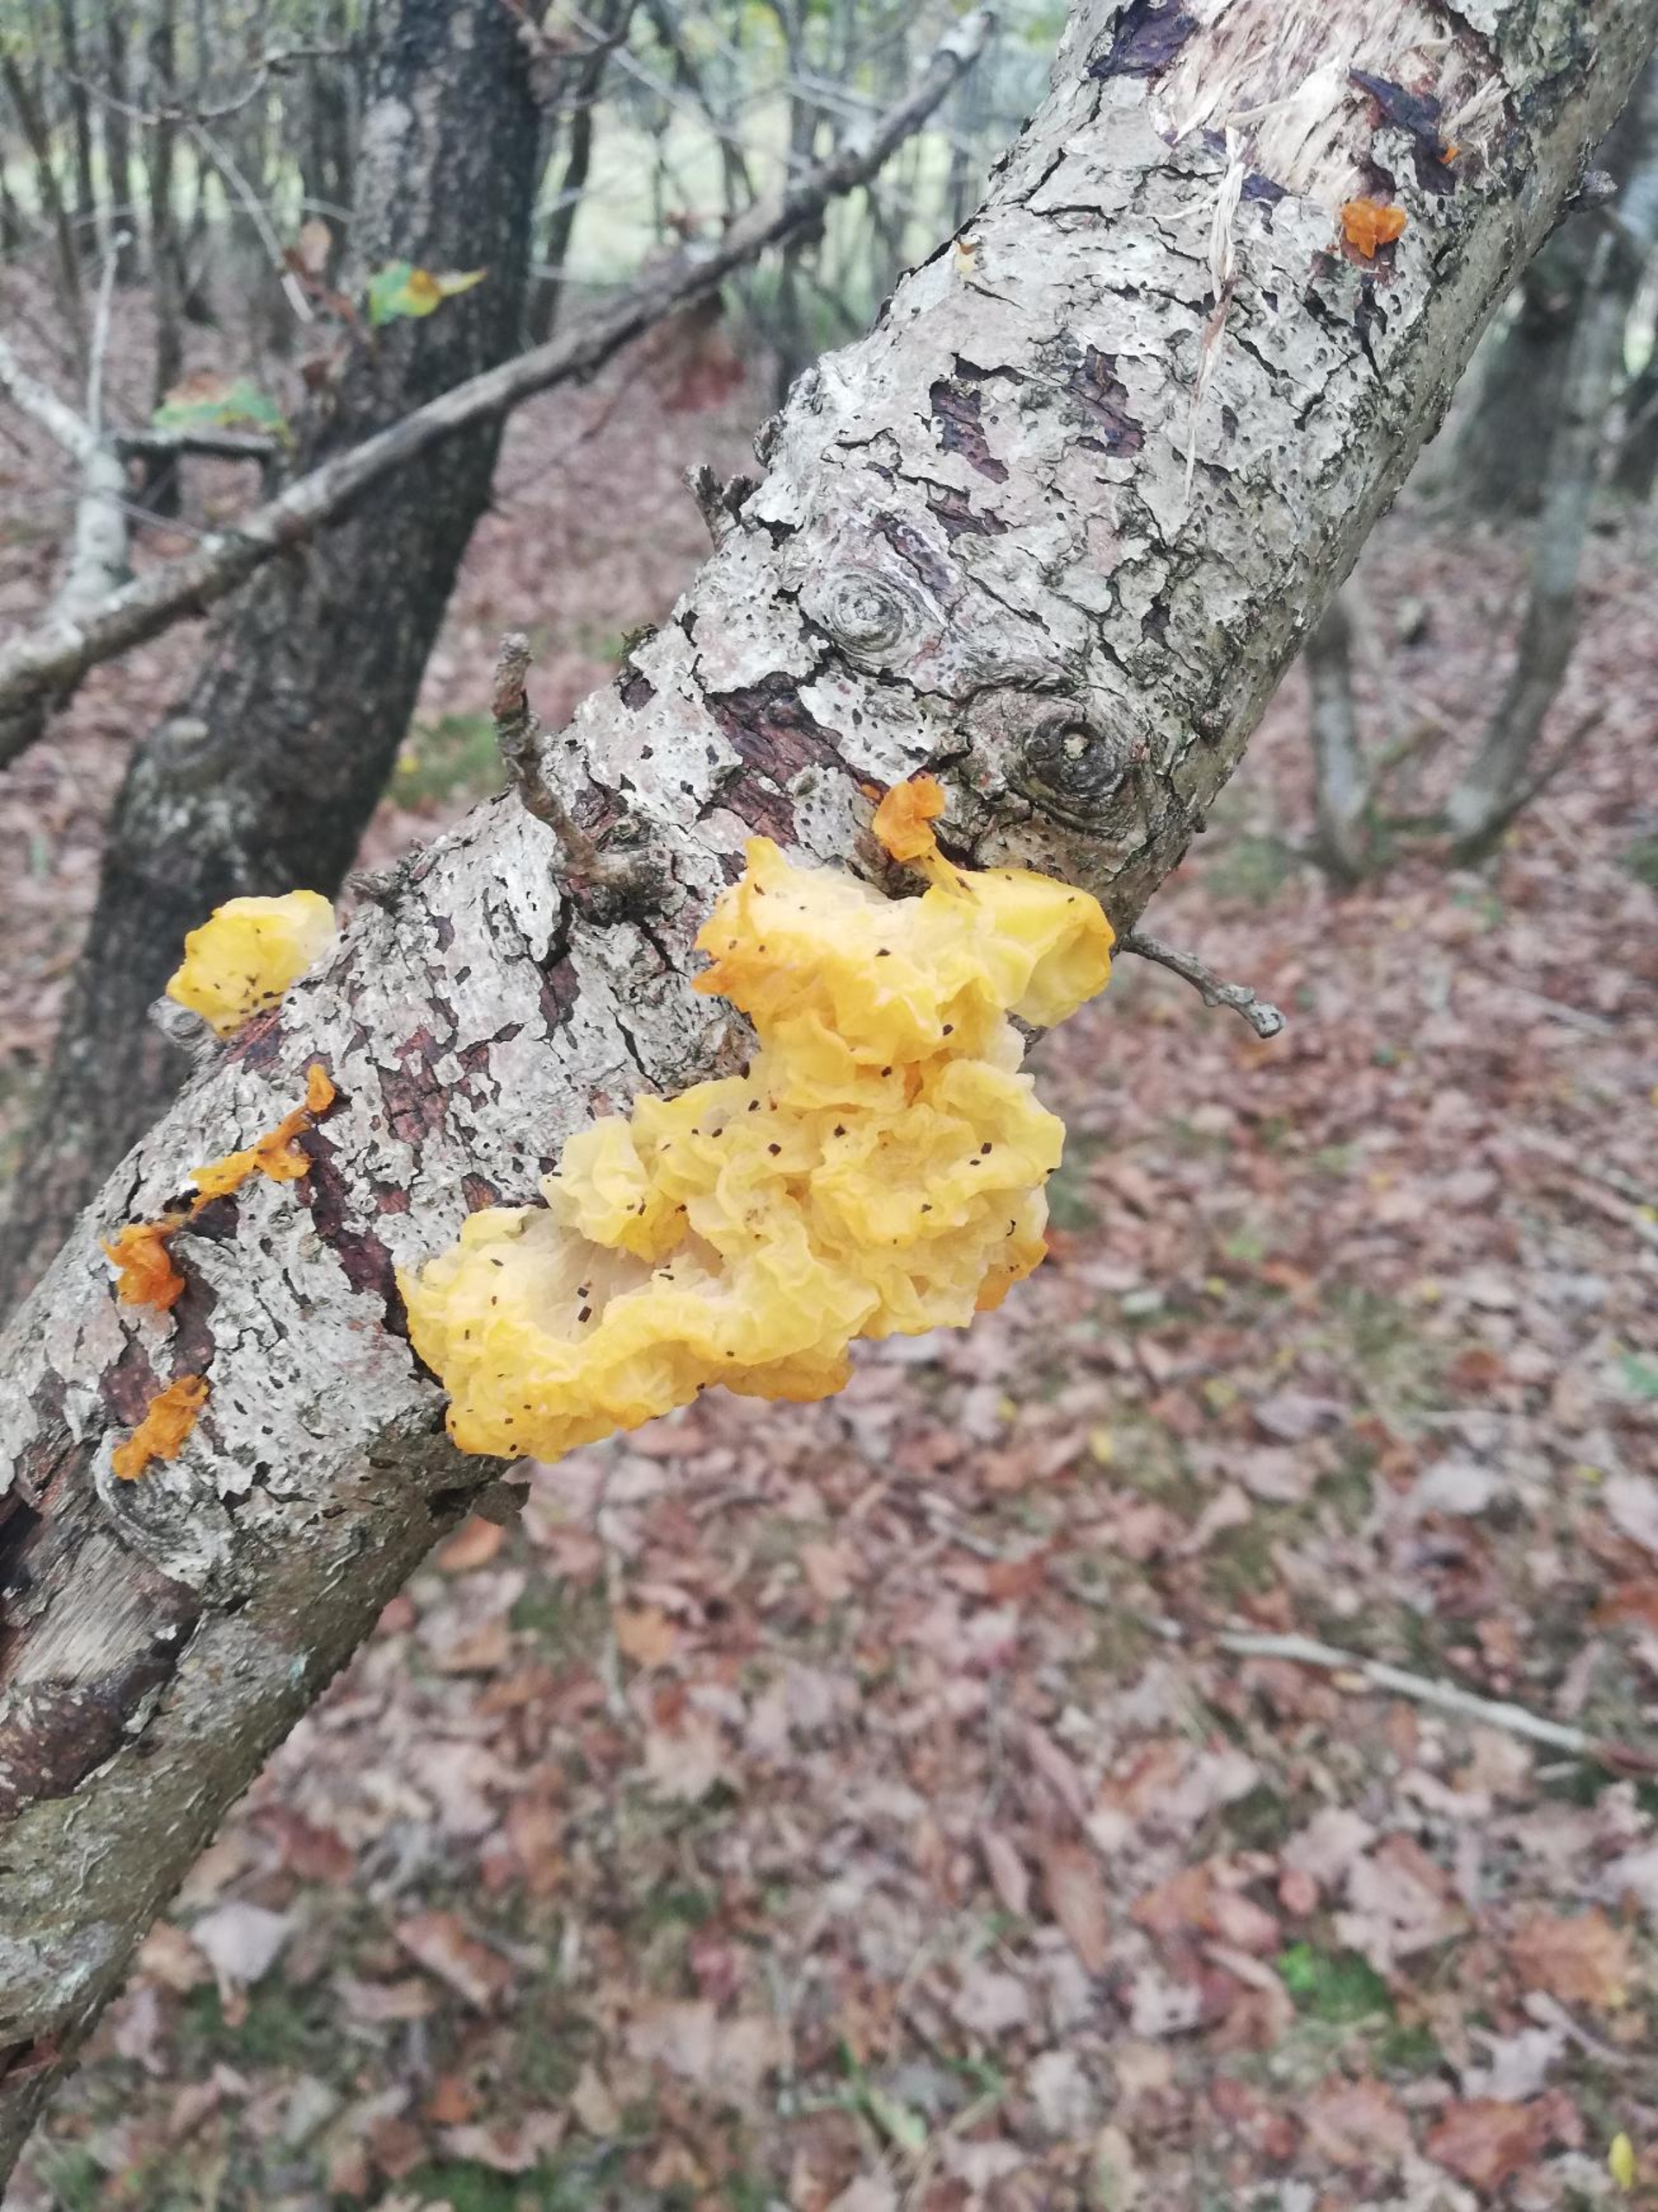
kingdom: Fungi
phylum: Basidiomycota
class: Tremellomycetes
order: Tremellales
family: Tremellaceae
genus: Tremella
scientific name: Tremella mesenterica
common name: Gul bævresvamp
